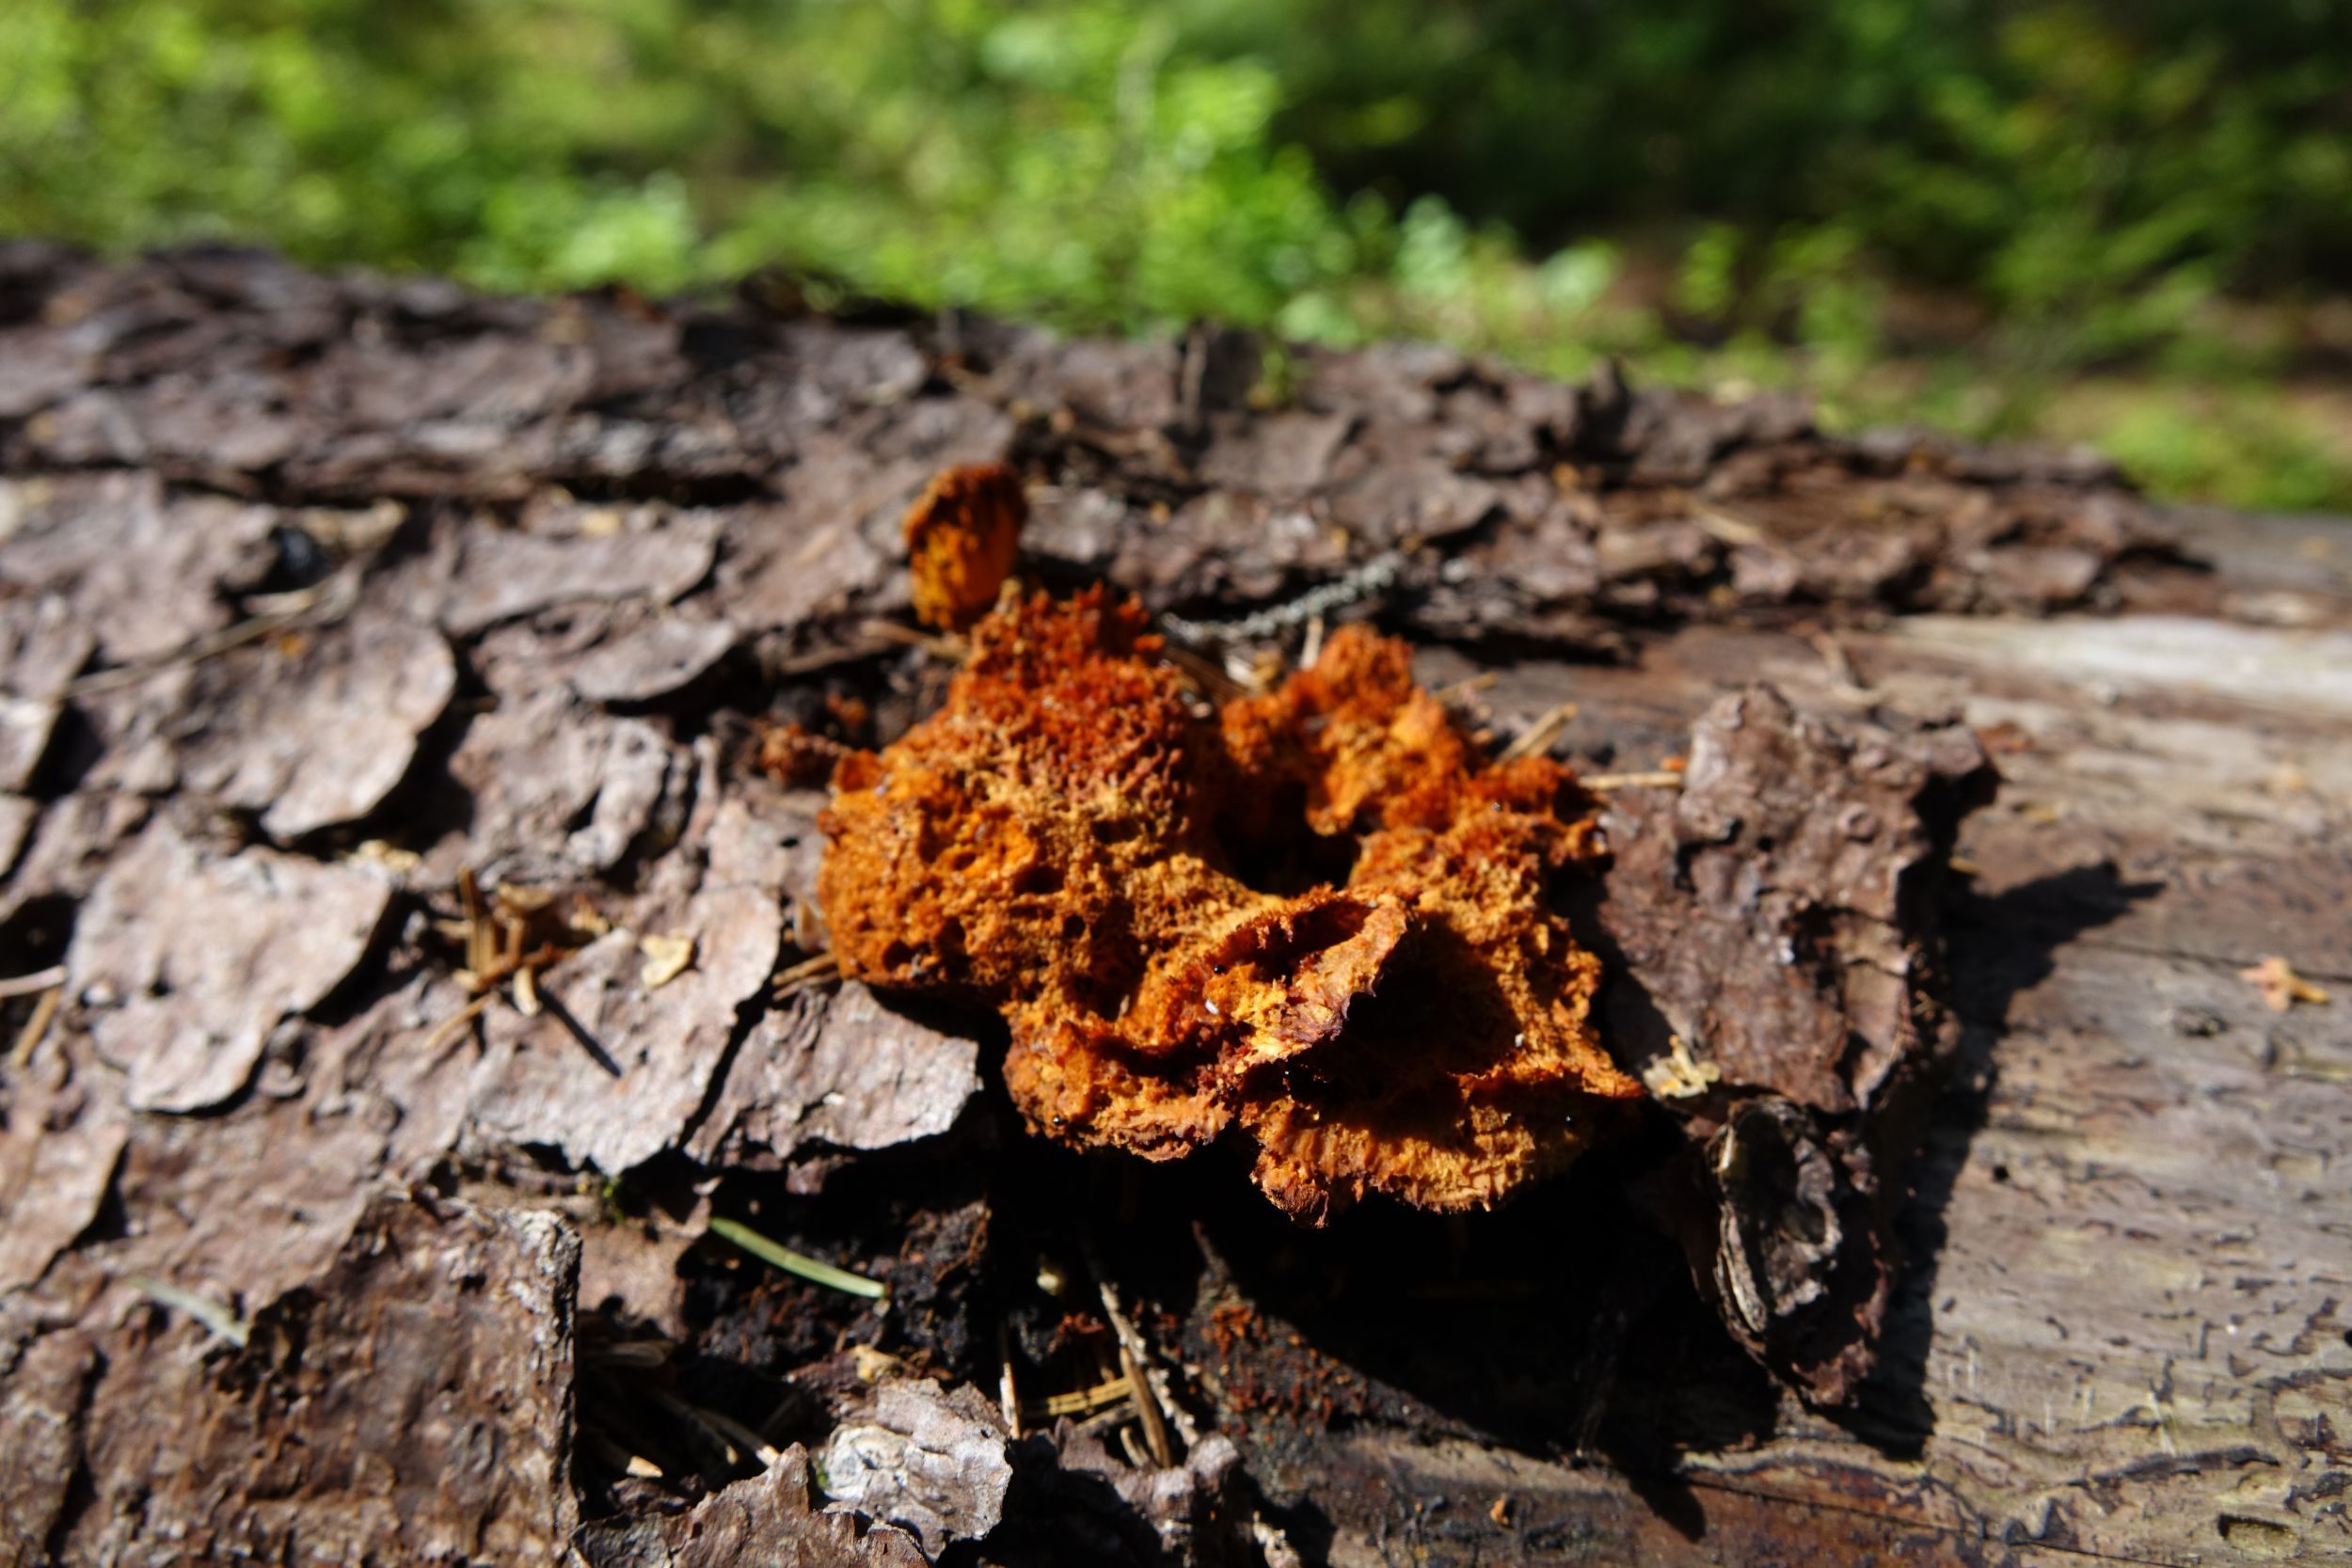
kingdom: Fungi
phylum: Basidiomycota
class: Agaricomycetes
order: Polyporales
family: Pycnoporellaceae
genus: Pycnoporellus
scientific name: Pycnoporellus fulgens
